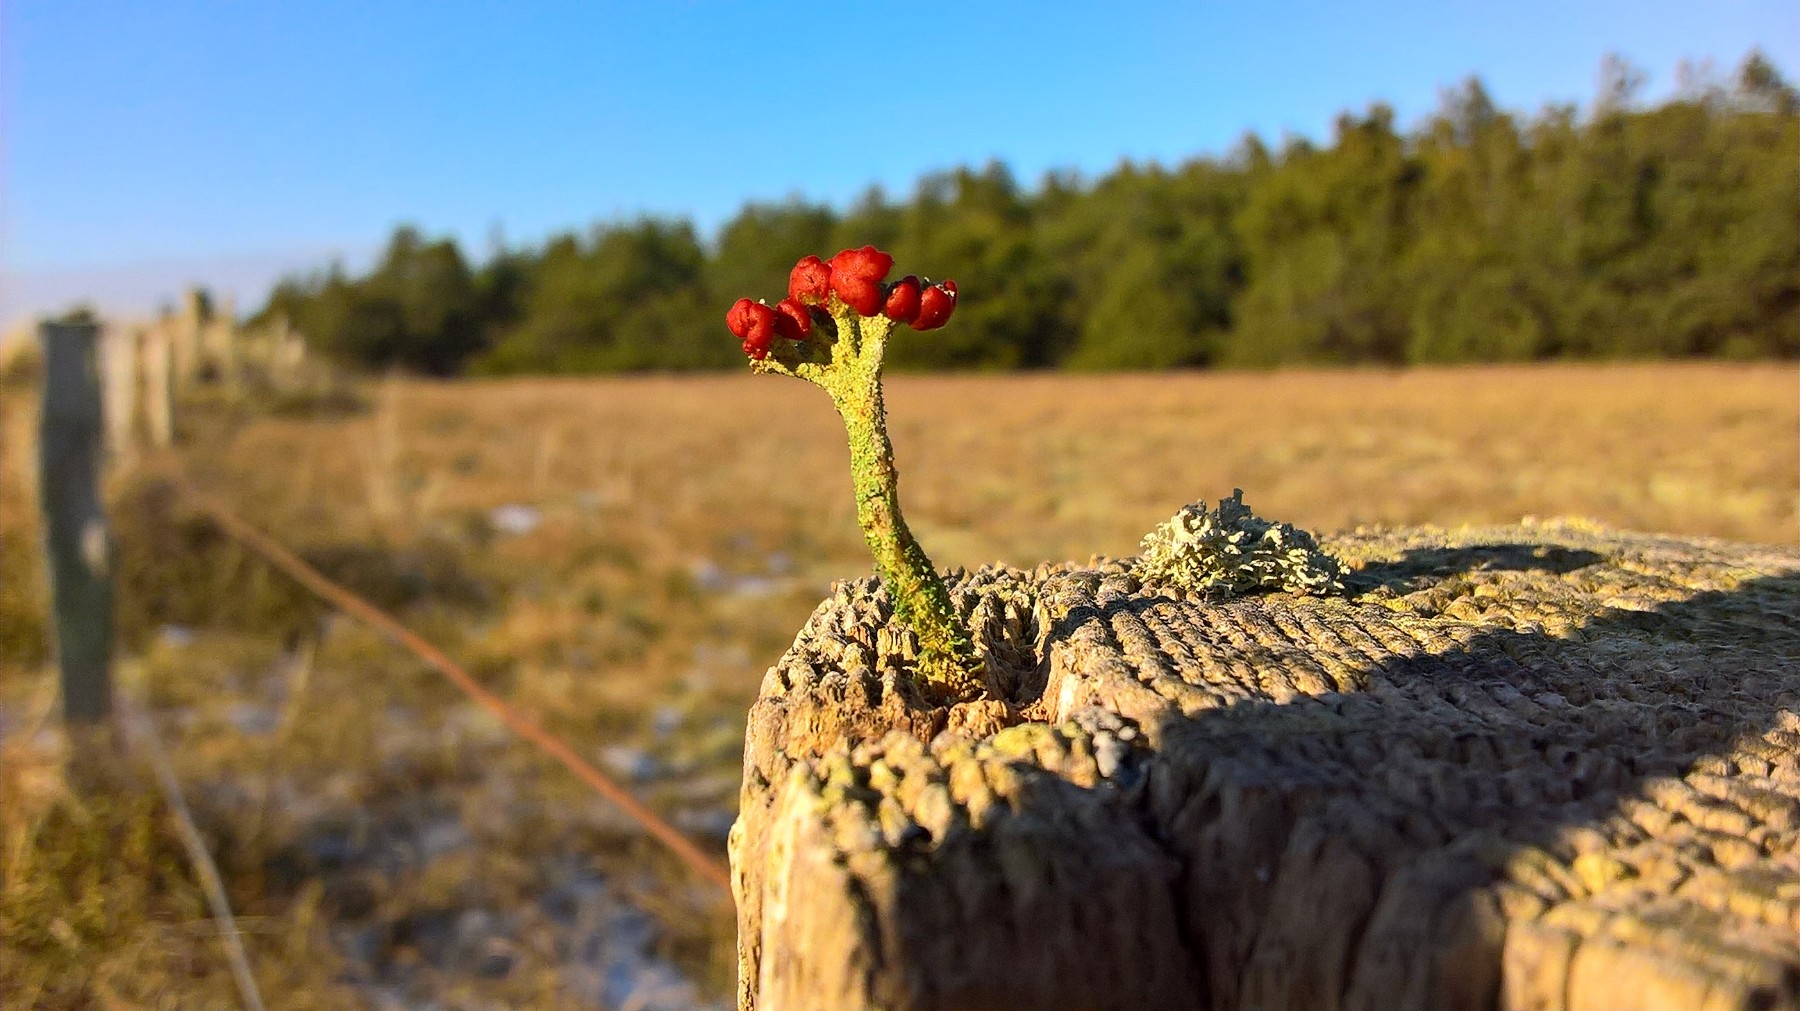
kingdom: Fungi
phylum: Ascomycota
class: Lecanoromycetes
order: Lecanorales
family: Cladoniaceae
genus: Cladonia
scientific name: Cladonia floerkeana
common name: lakrød bægerlav
